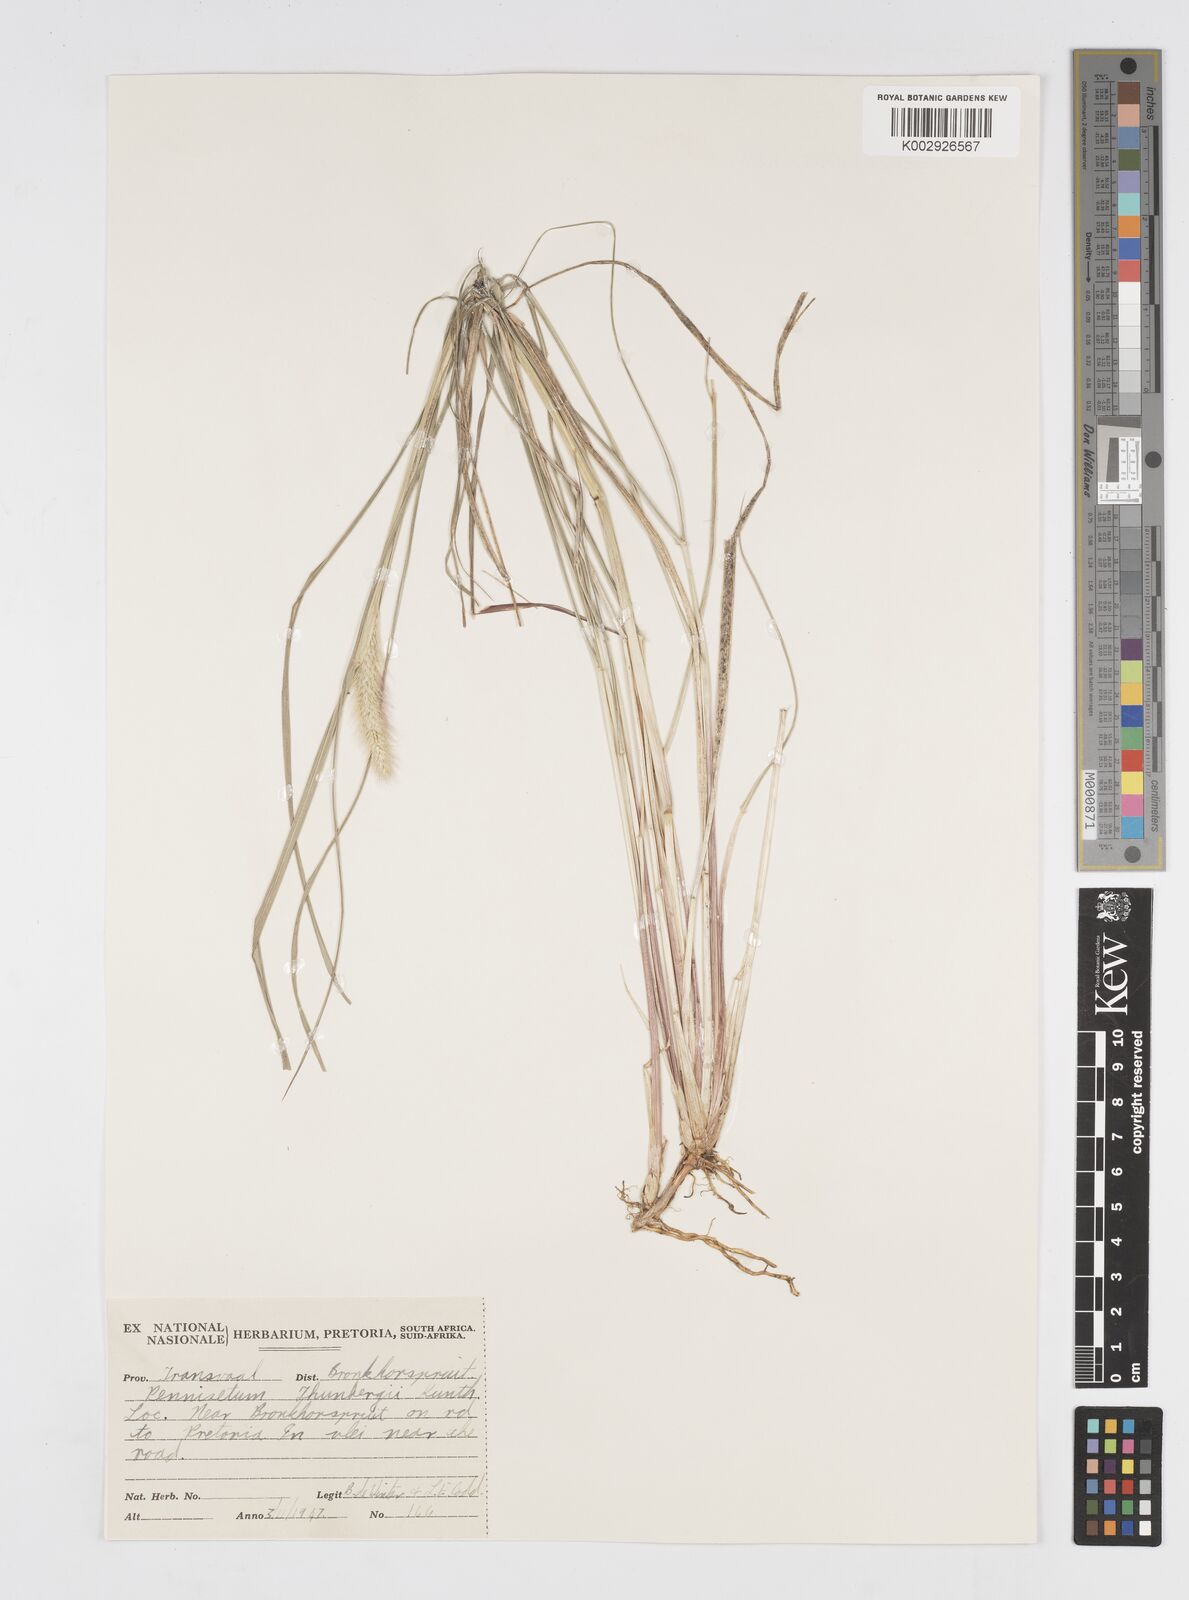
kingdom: Plantae
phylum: Tracheophyta
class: Liliopsida
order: Poales
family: Poaceae
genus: Cenchrus
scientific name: Cenchrus geniculatus
